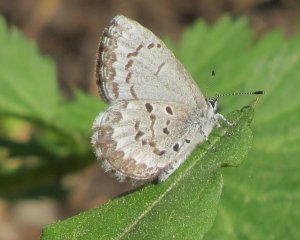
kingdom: Animalia
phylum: Arthropoda
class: Insecta
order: Lepidoptera
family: Lycaenidae
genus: Celastrina
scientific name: Celastrina lucia
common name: Northern Spring Azure
